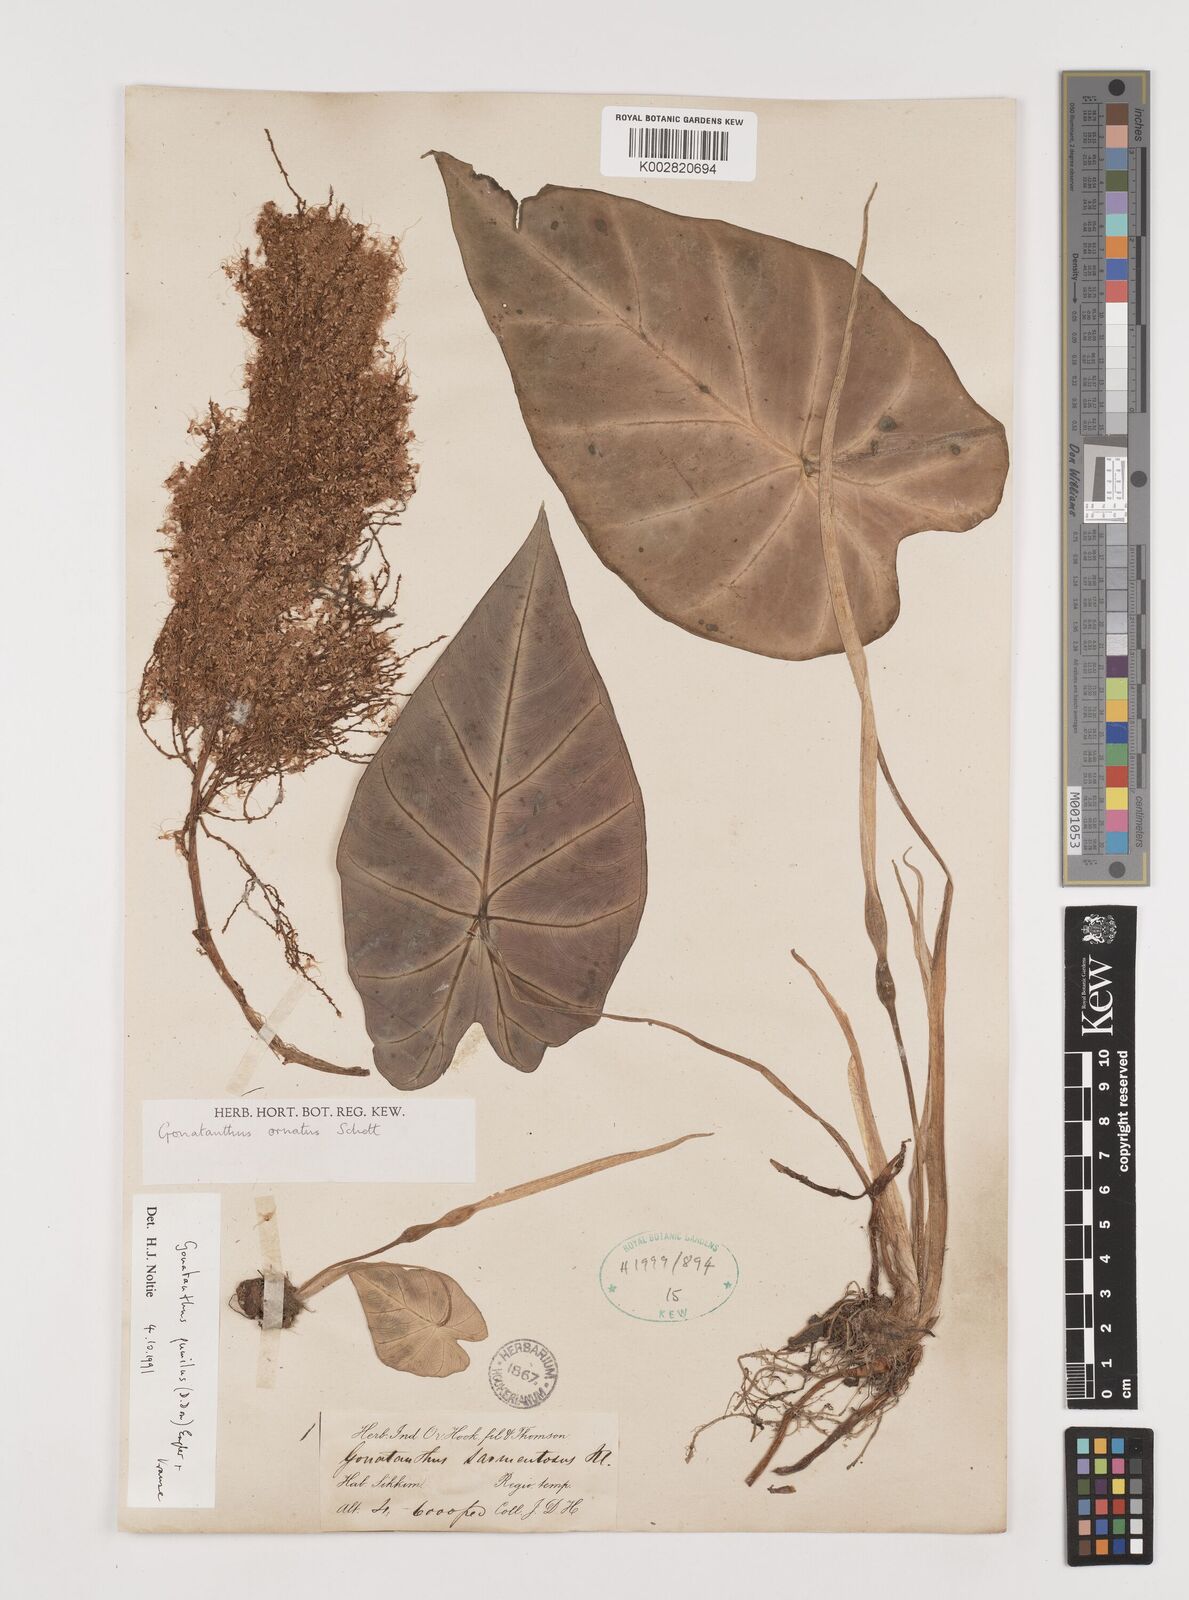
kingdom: Plantae
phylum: Tracheophyta
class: Liliopsida
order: Alismatales
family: Araceae
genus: Remusatia
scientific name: Remusatia pumila
